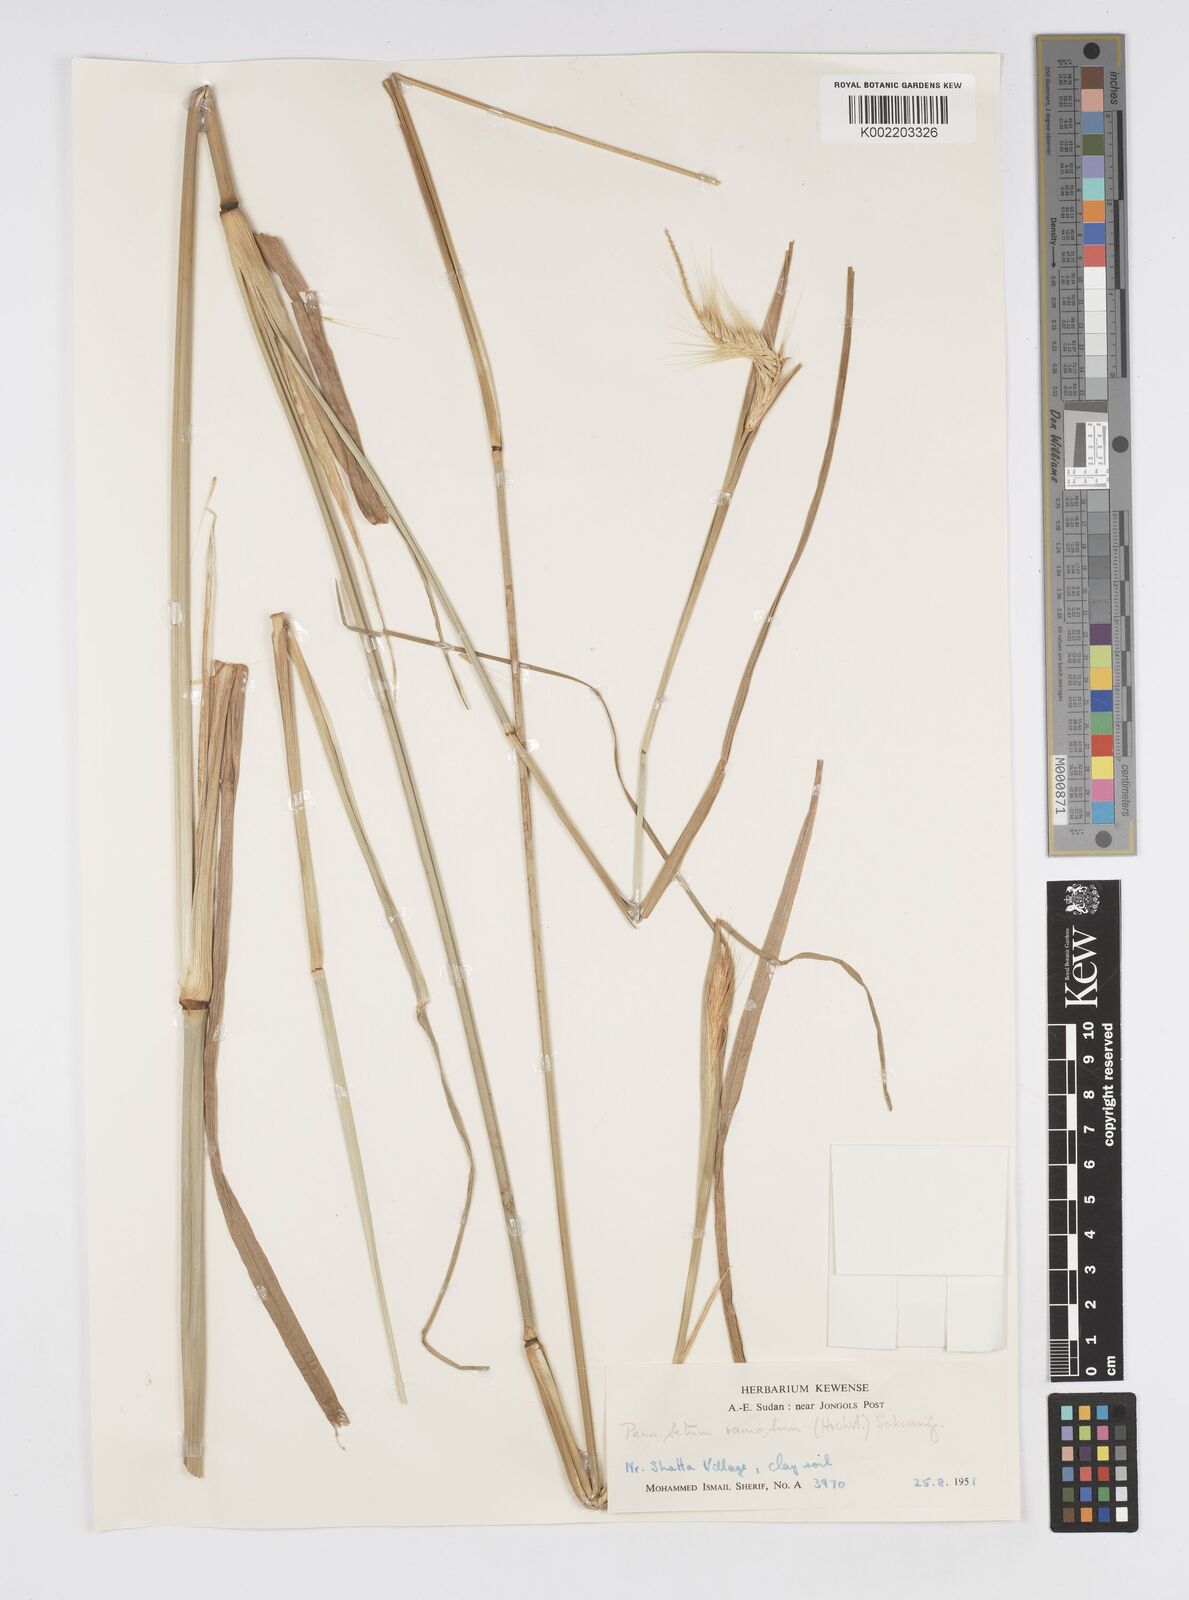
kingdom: Plantae
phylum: Tracheophyta
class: Liliopsida
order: Poales
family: Poaceae
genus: Cenchrus
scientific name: Cenchrus ramosus
